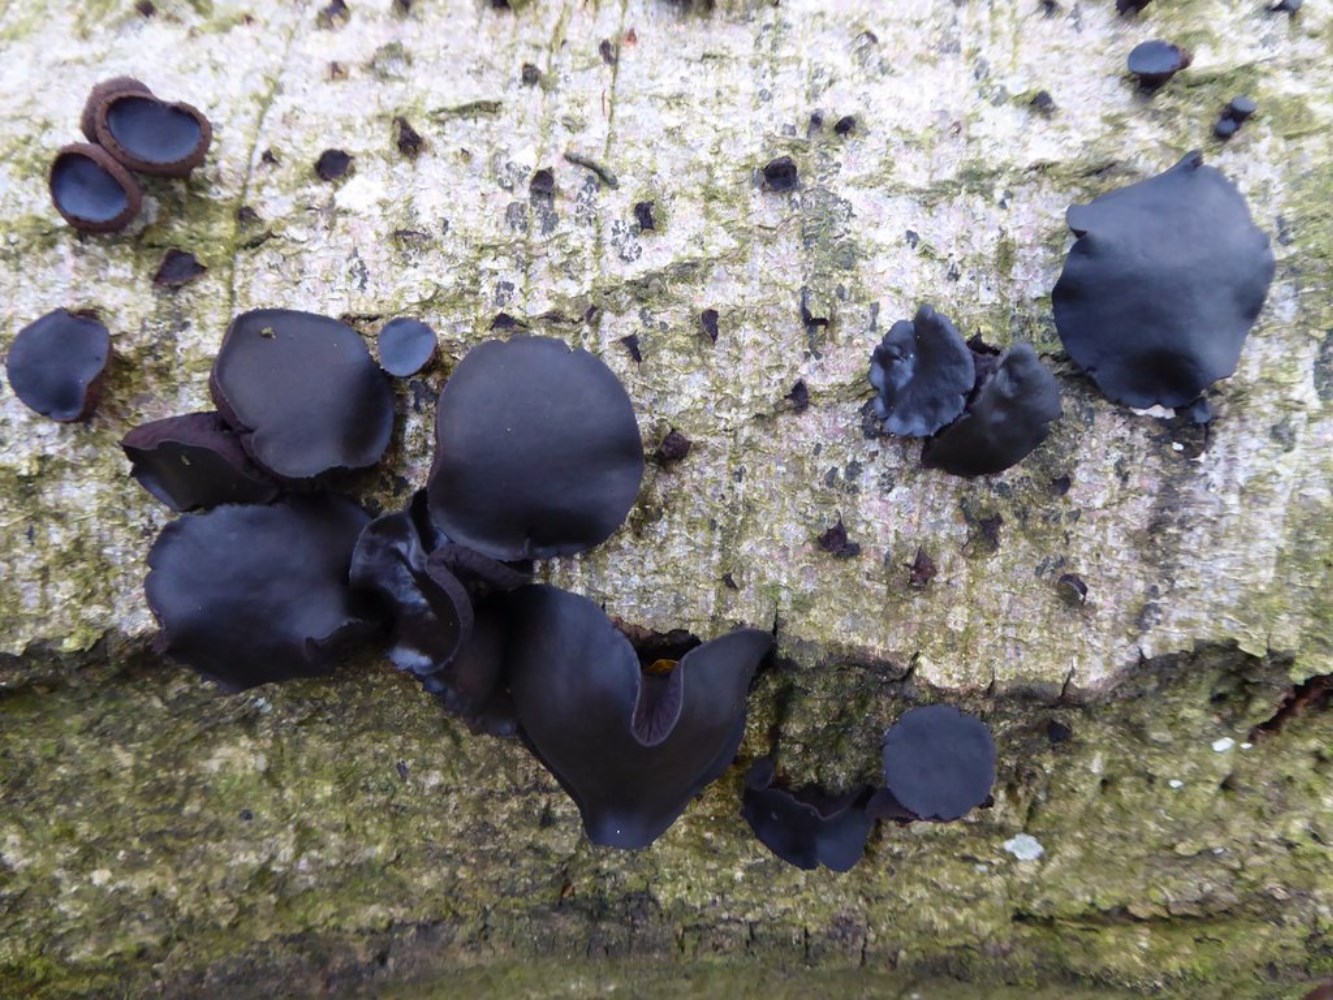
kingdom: Fungi
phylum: Ascomycota
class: Leotiomycetes
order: Phacidiales
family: Phacidiaceae
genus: Bulgaria
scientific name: Bulgaria inquinans
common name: afsmittende topsvamp
